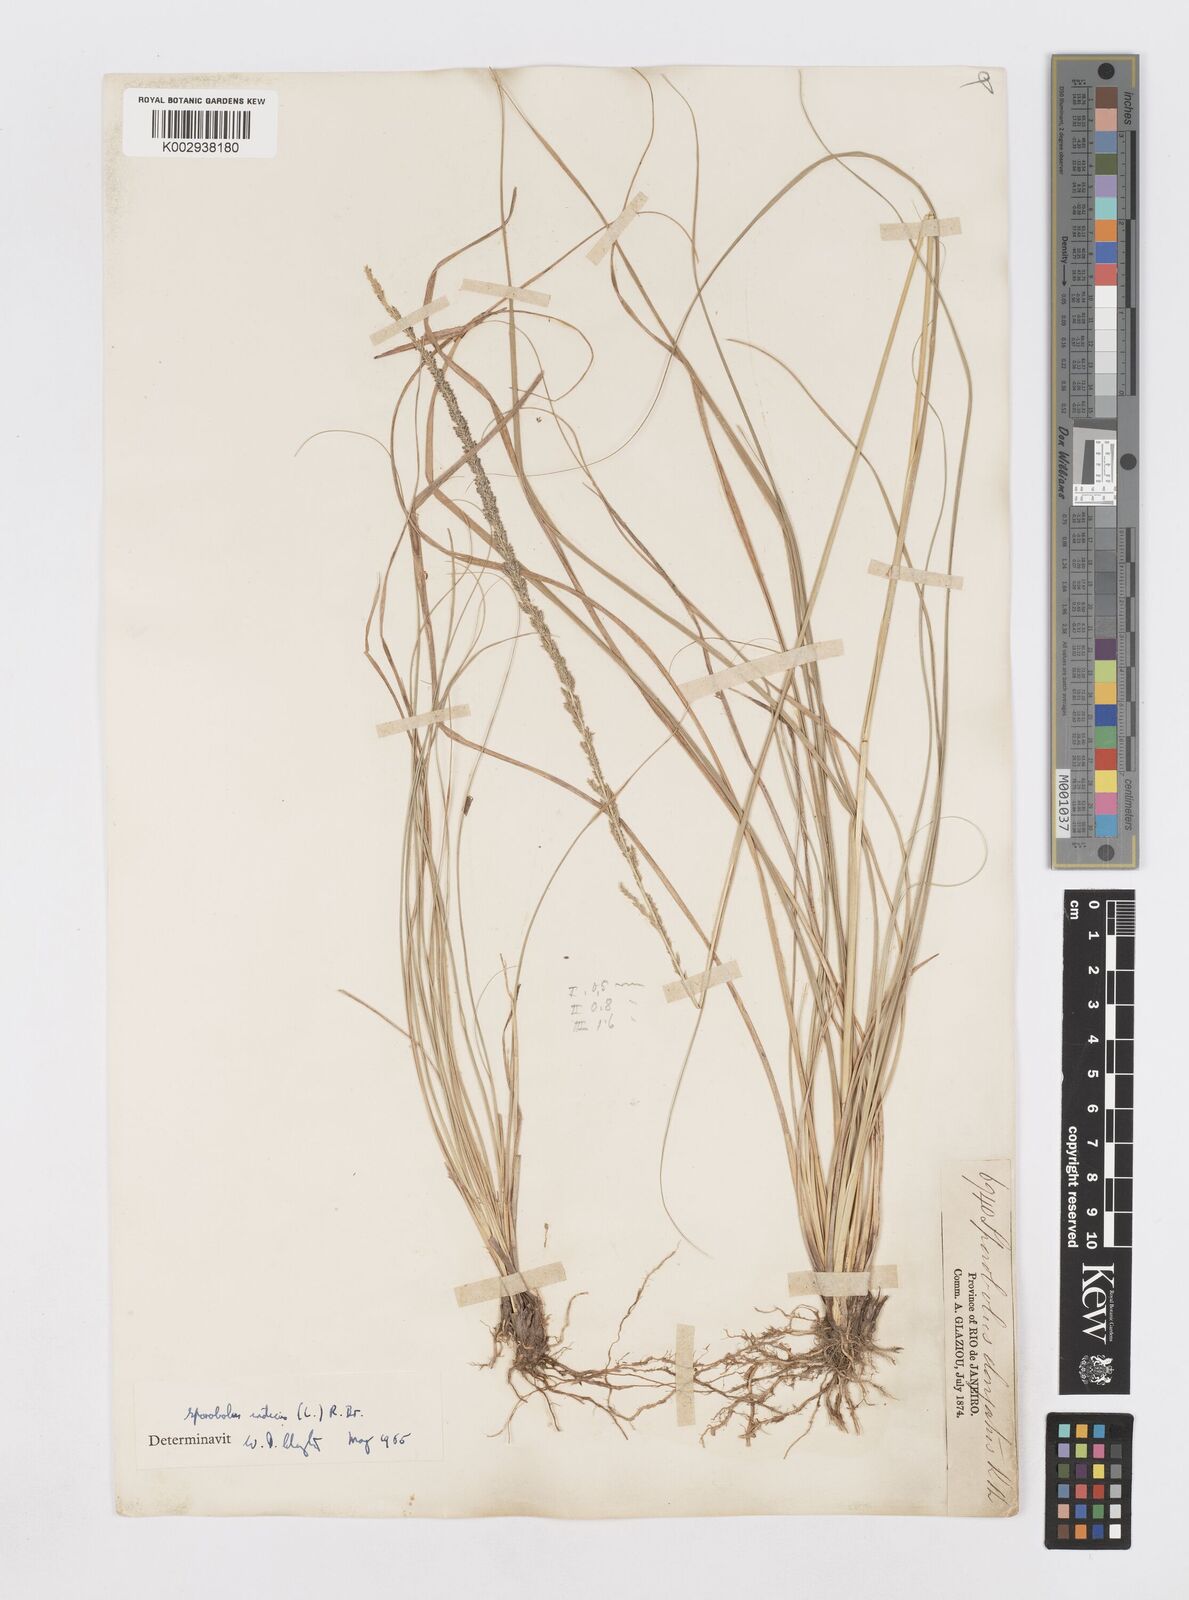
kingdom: Plantae
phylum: Tracheophyta
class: Liliopsida
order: Poales
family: Poaceae
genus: Sporobolus
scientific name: Sporobolus indicus
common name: Smut grass
